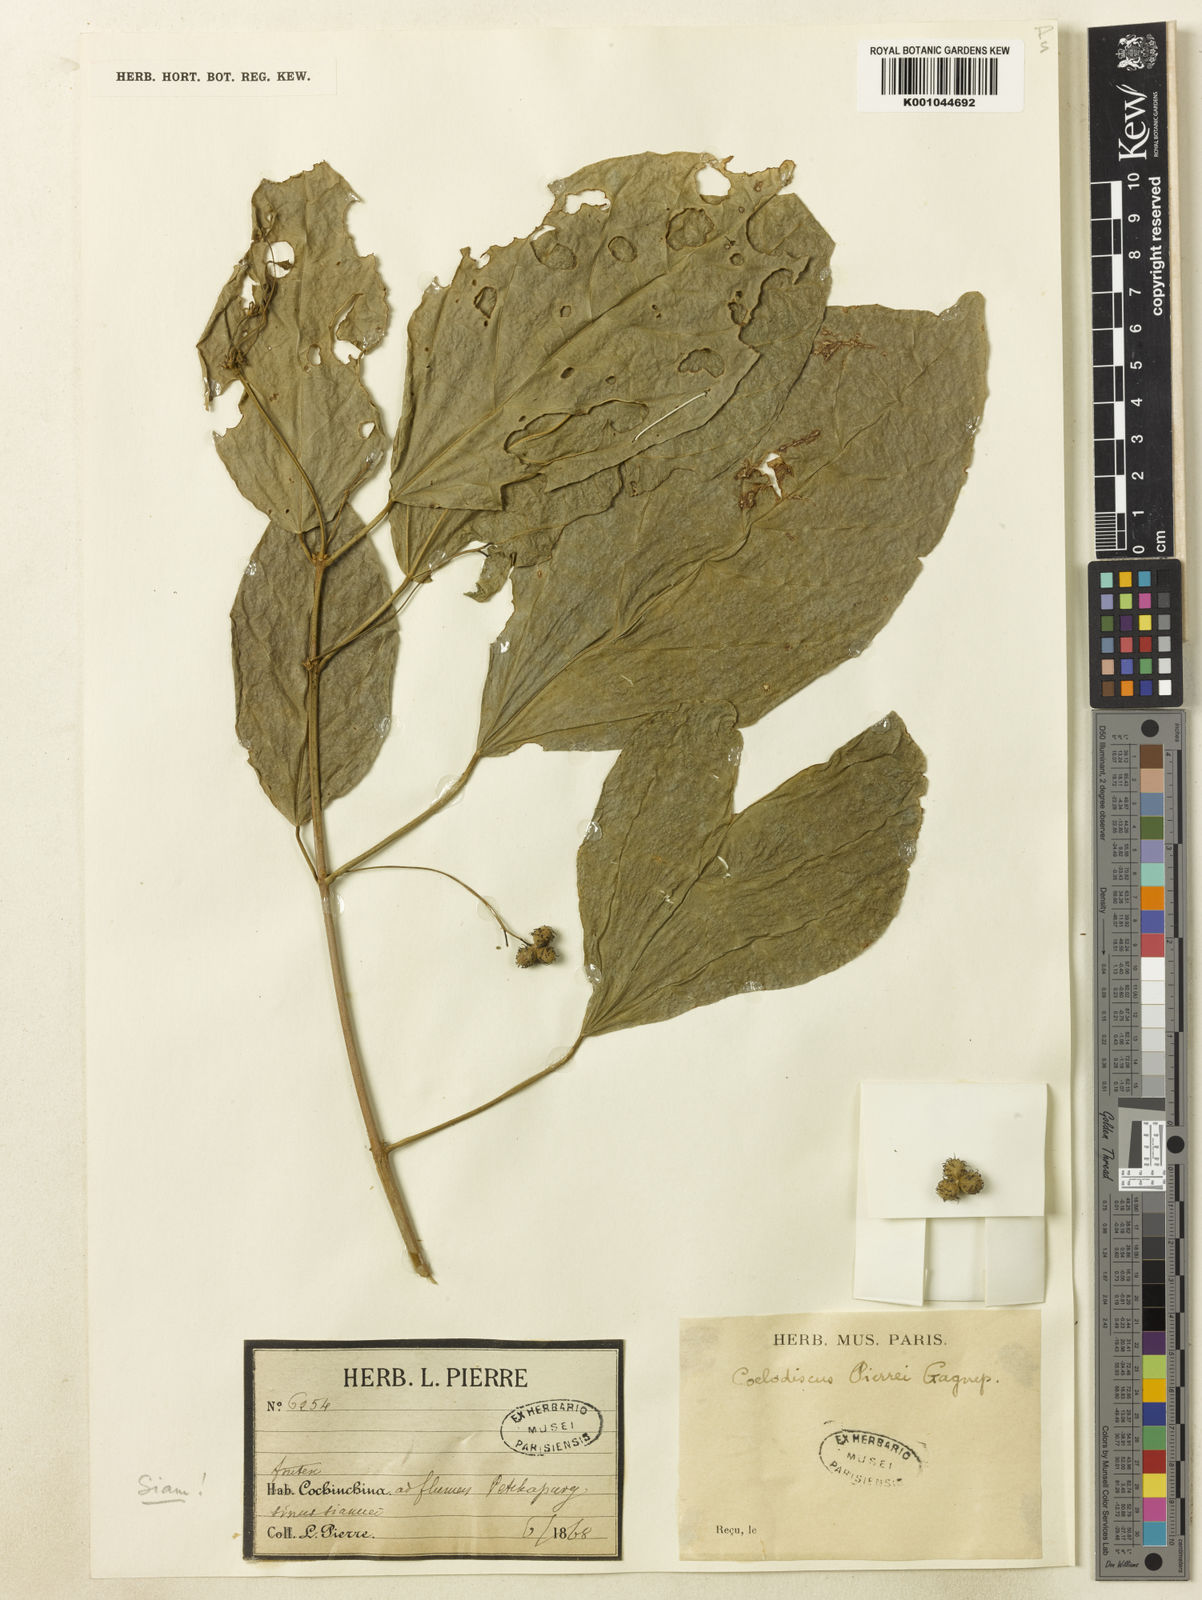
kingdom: Plantae
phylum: Tracheophyta
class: Magnoliopsida
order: Malpighiales
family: Euphorbiaceae
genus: Mallotus
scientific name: Mallotus pierrei
